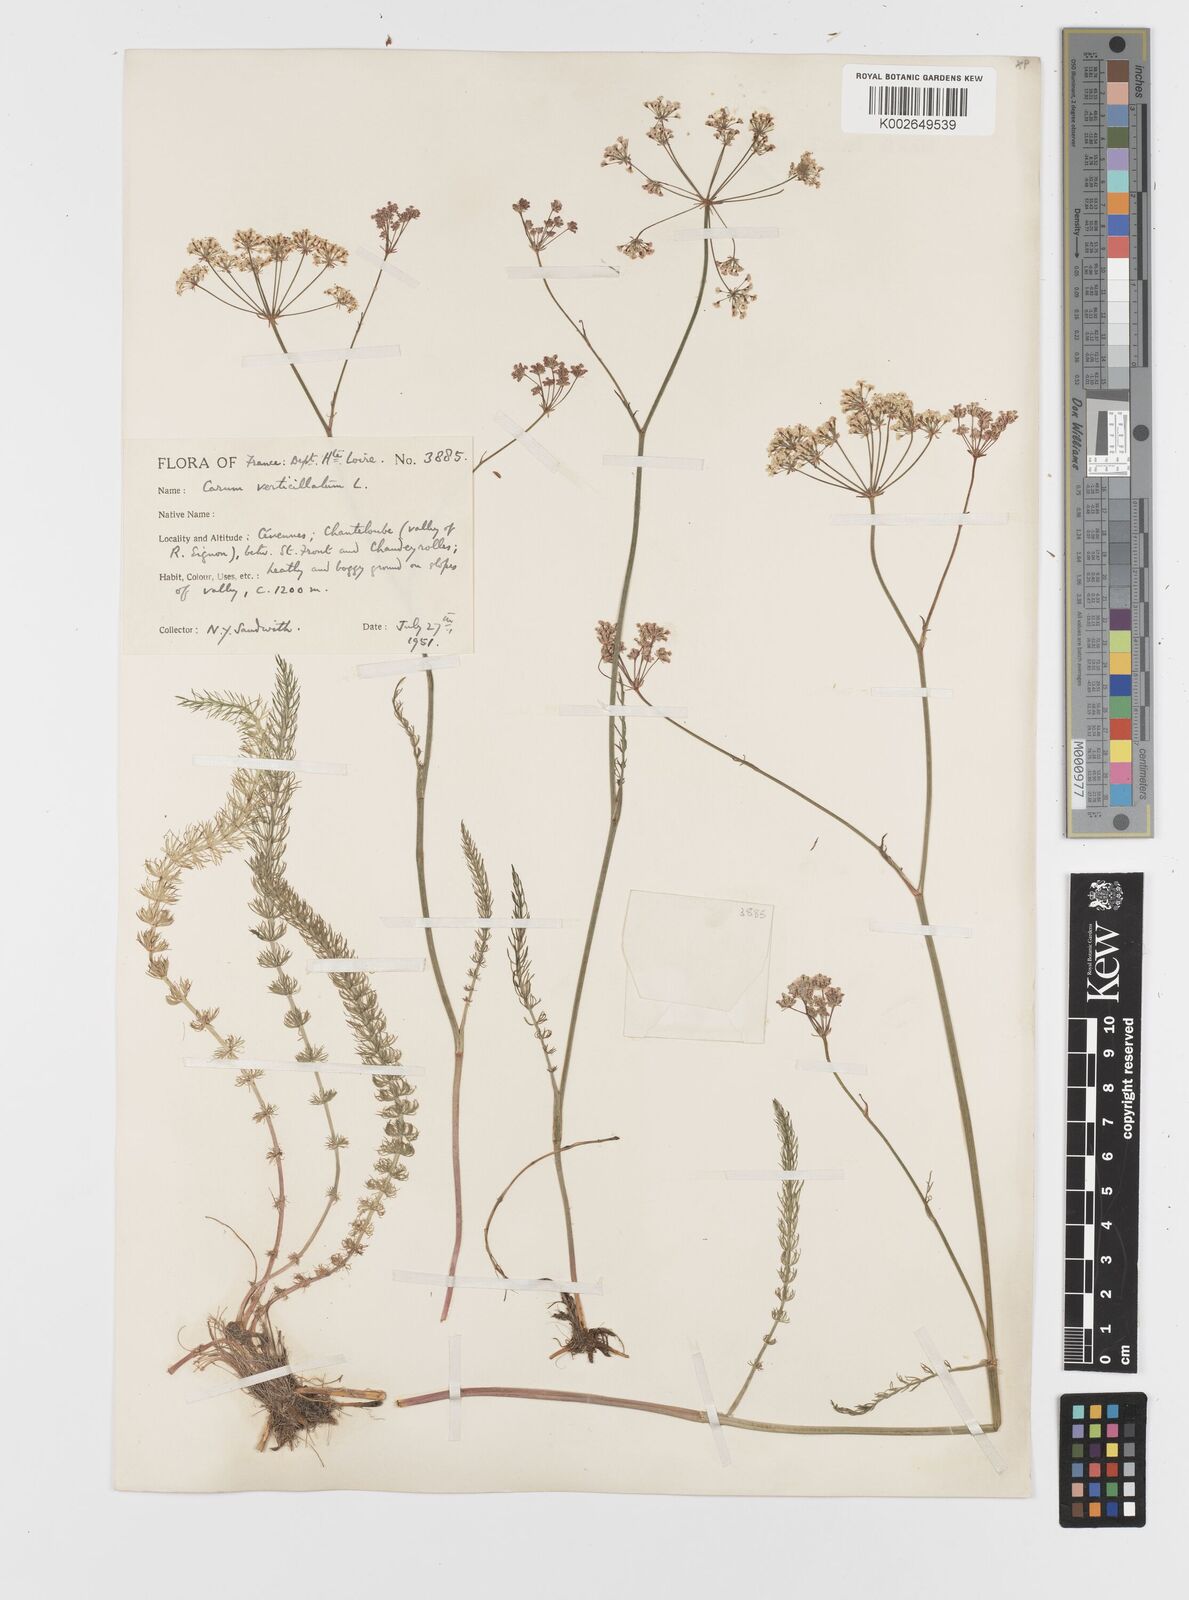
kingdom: Plantae
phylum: Tracheophyta
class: Magnoliopsida
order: Apiales
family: Apiaceae
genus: Trocdaris
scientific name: Trocdaris verticillatum
